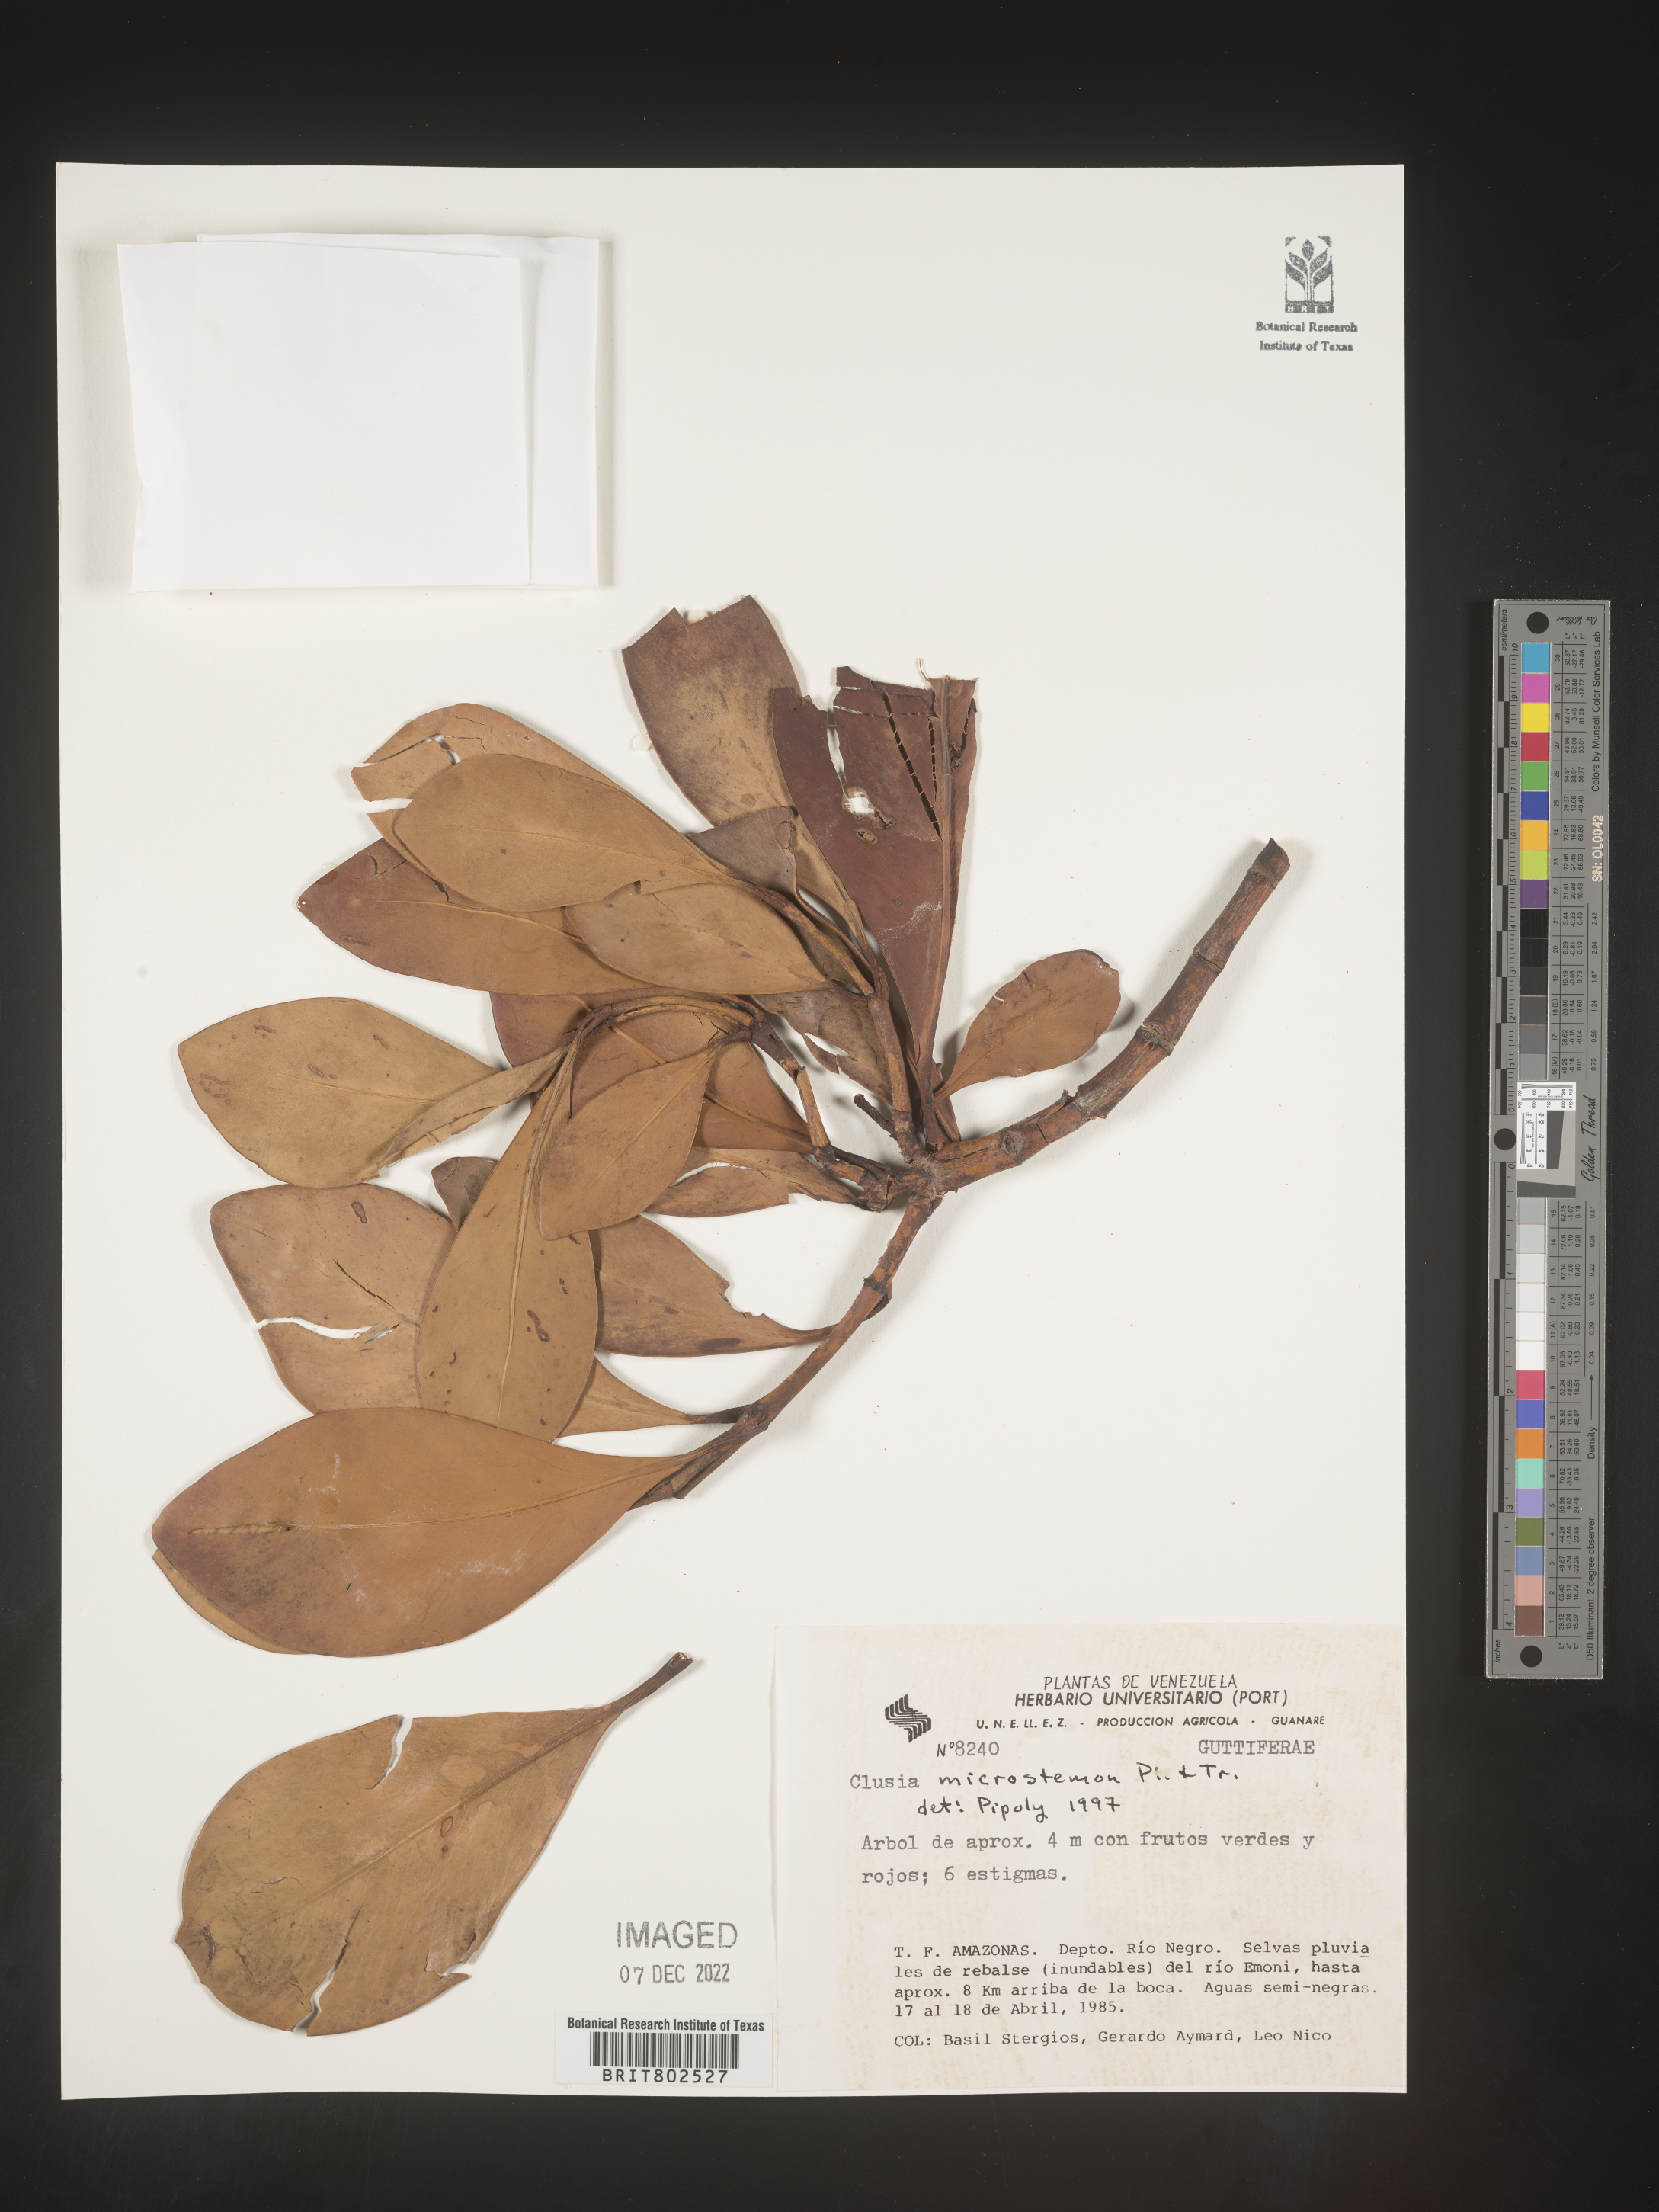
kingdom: Plantae
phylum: Tracheophyta
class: Magnoliopsida
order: Malpighiales
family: Clusiaceae
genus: Clusia
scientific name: Clusia microstemon
